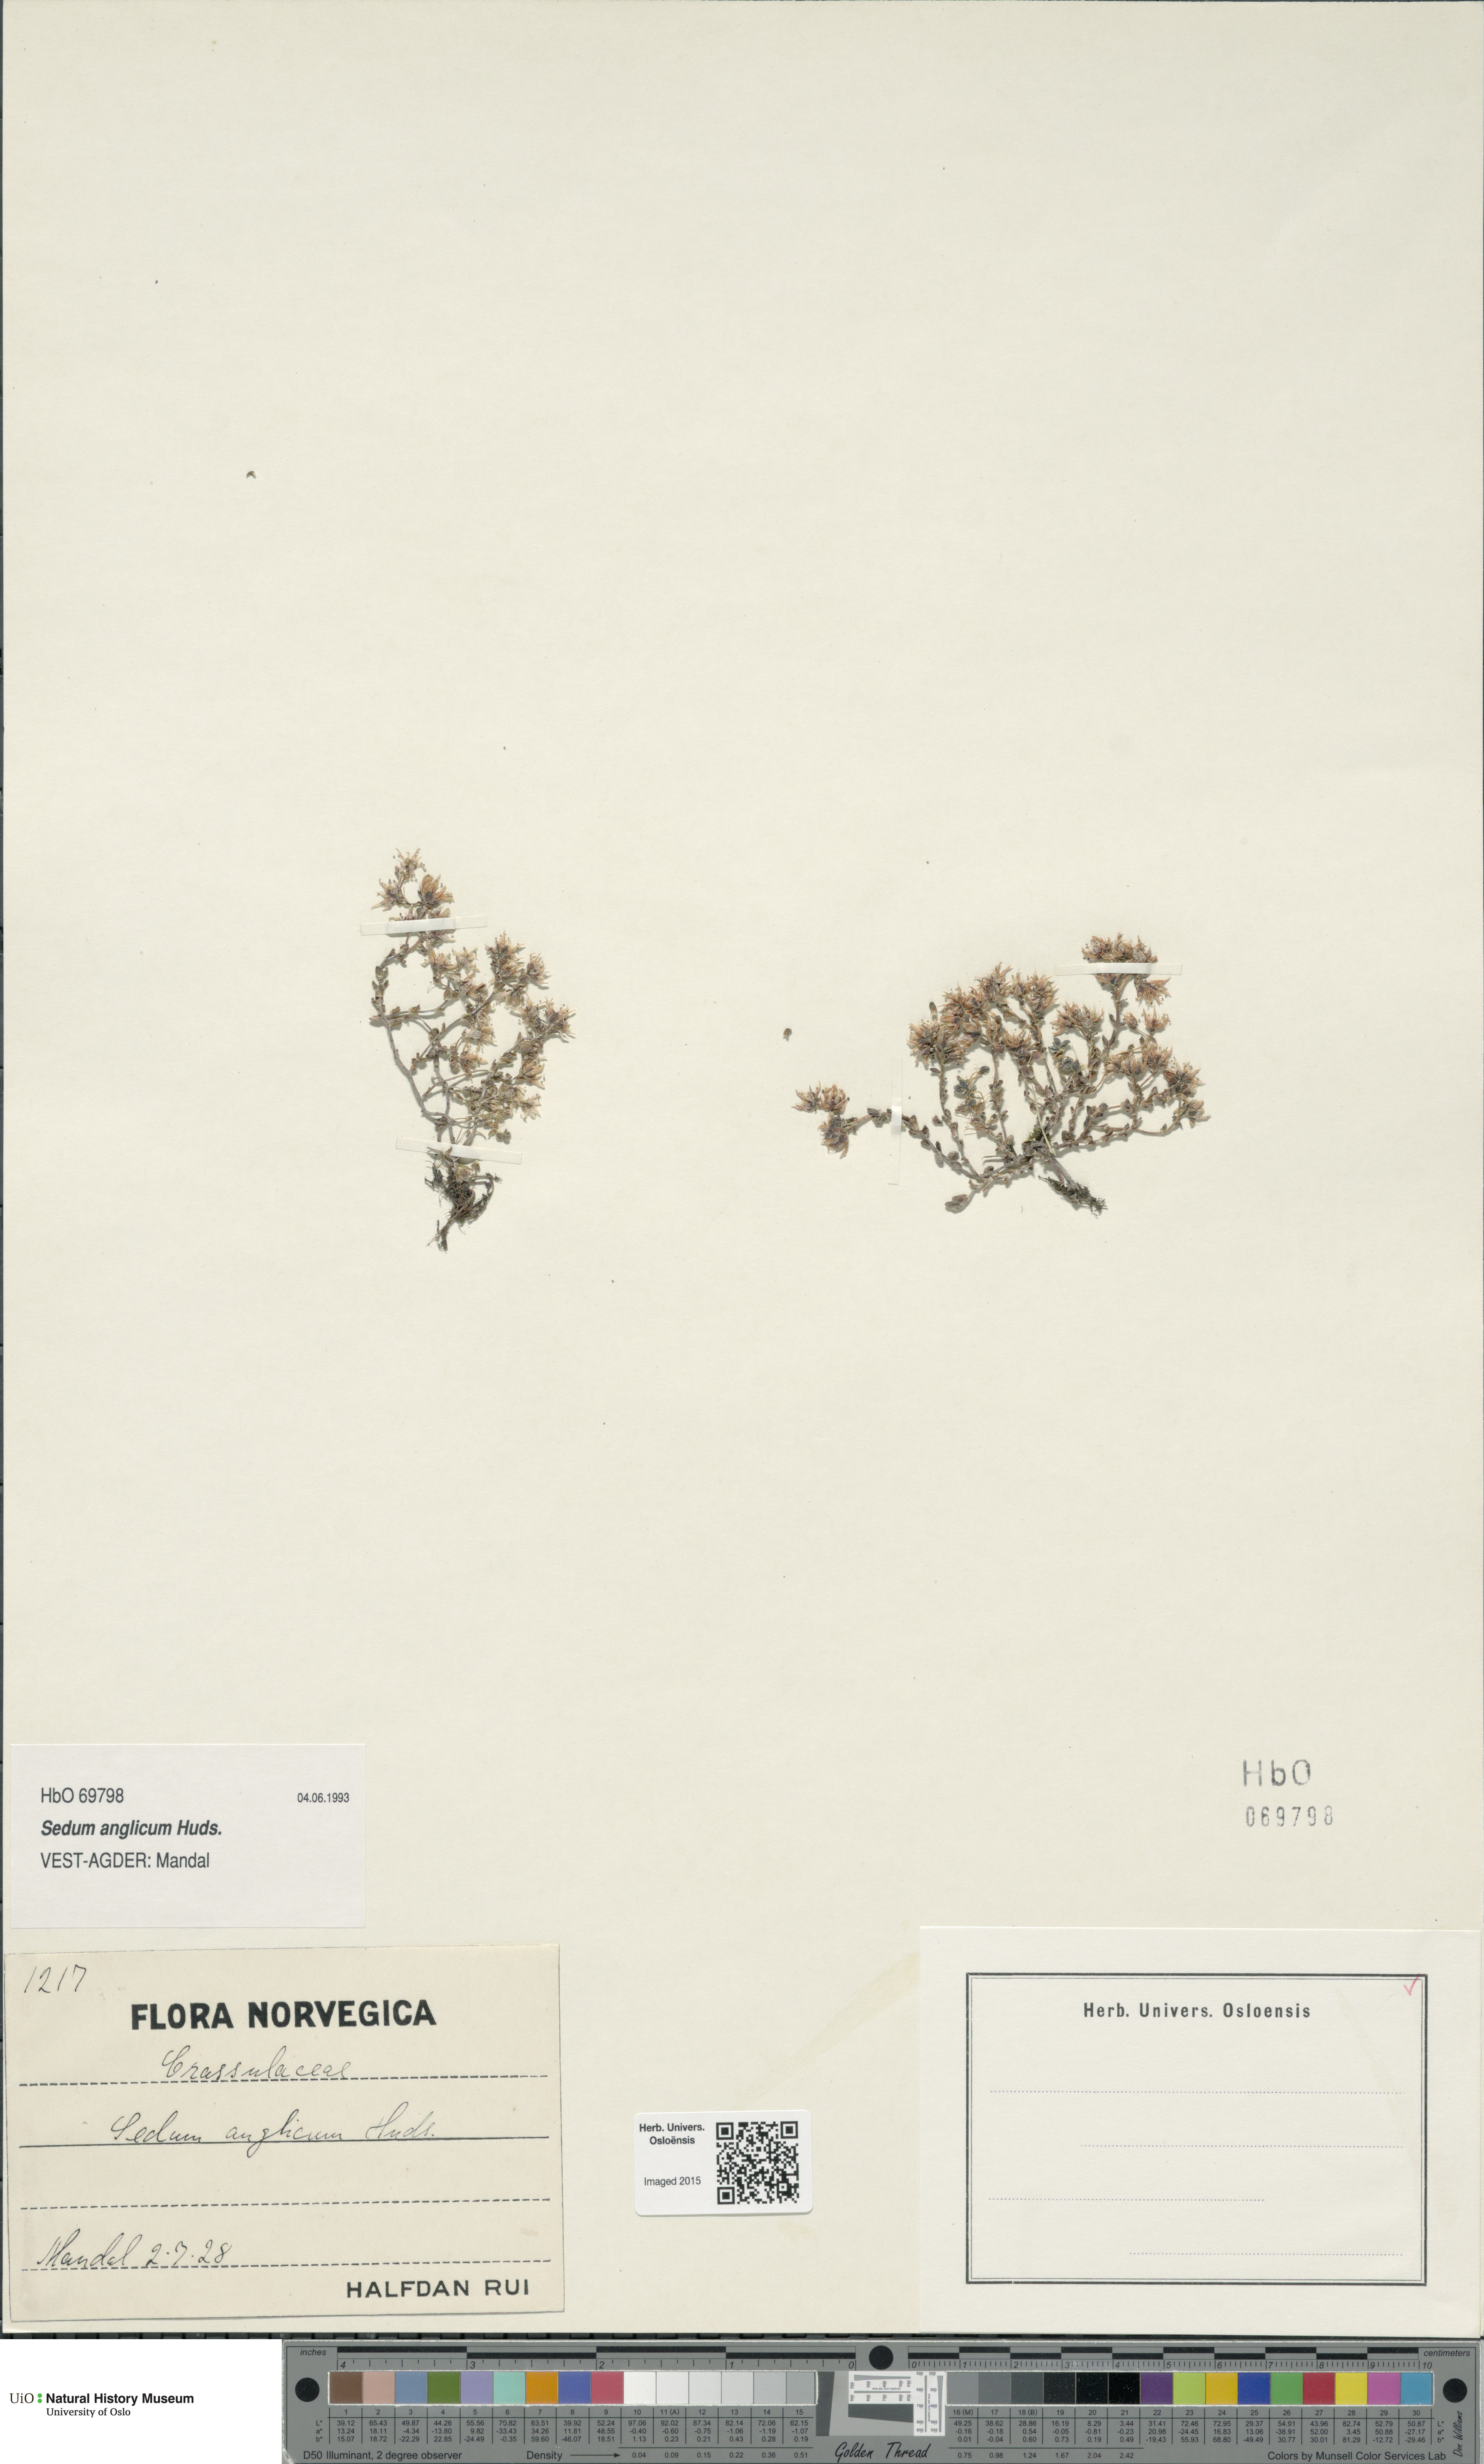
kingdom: Plantae
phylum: Tracheophyta
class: Magnoliopsida
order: Saxifragales
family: Crassulaceae
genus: Sedum
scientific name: Sedum anglicum
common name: English stonecrop
